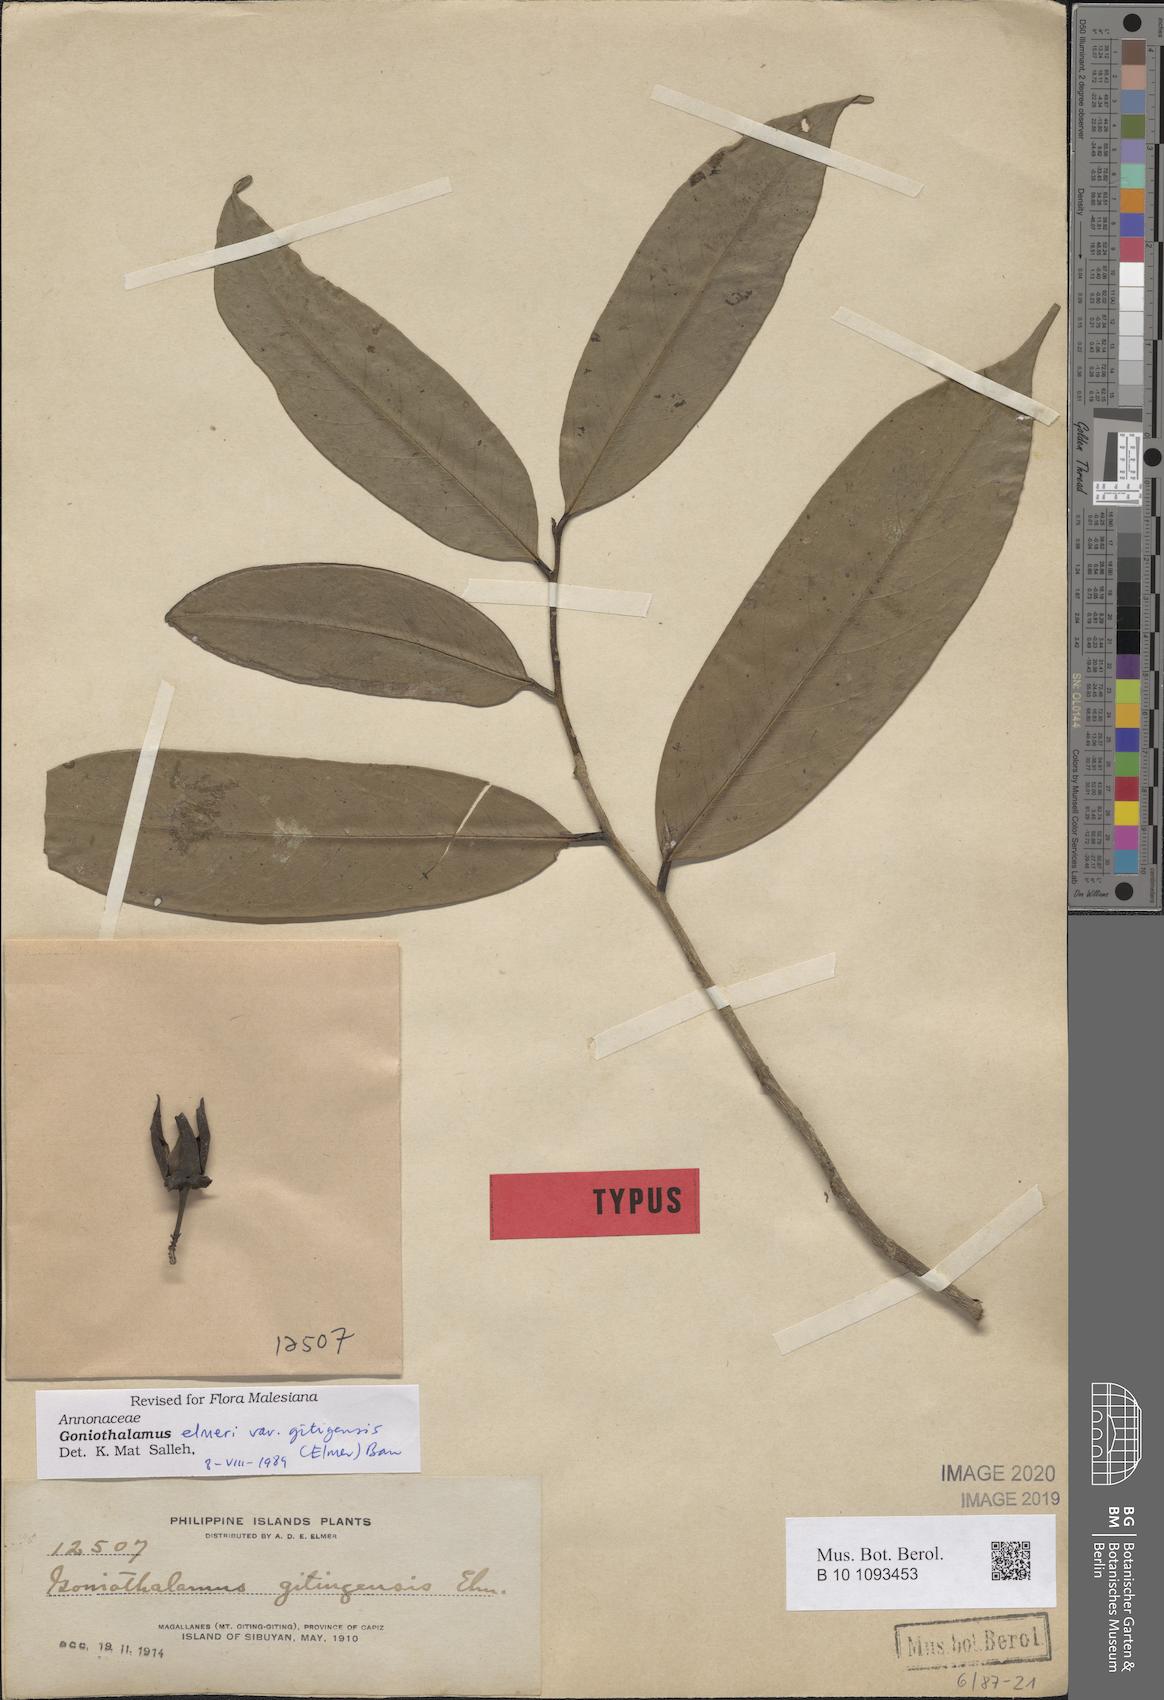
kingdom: Plantae
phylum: Tracheophyta
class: Magnoliopsida
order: Magnoliales
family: Annonaceae
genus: Goniothalamus
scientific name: Goniothalamus elmeri
